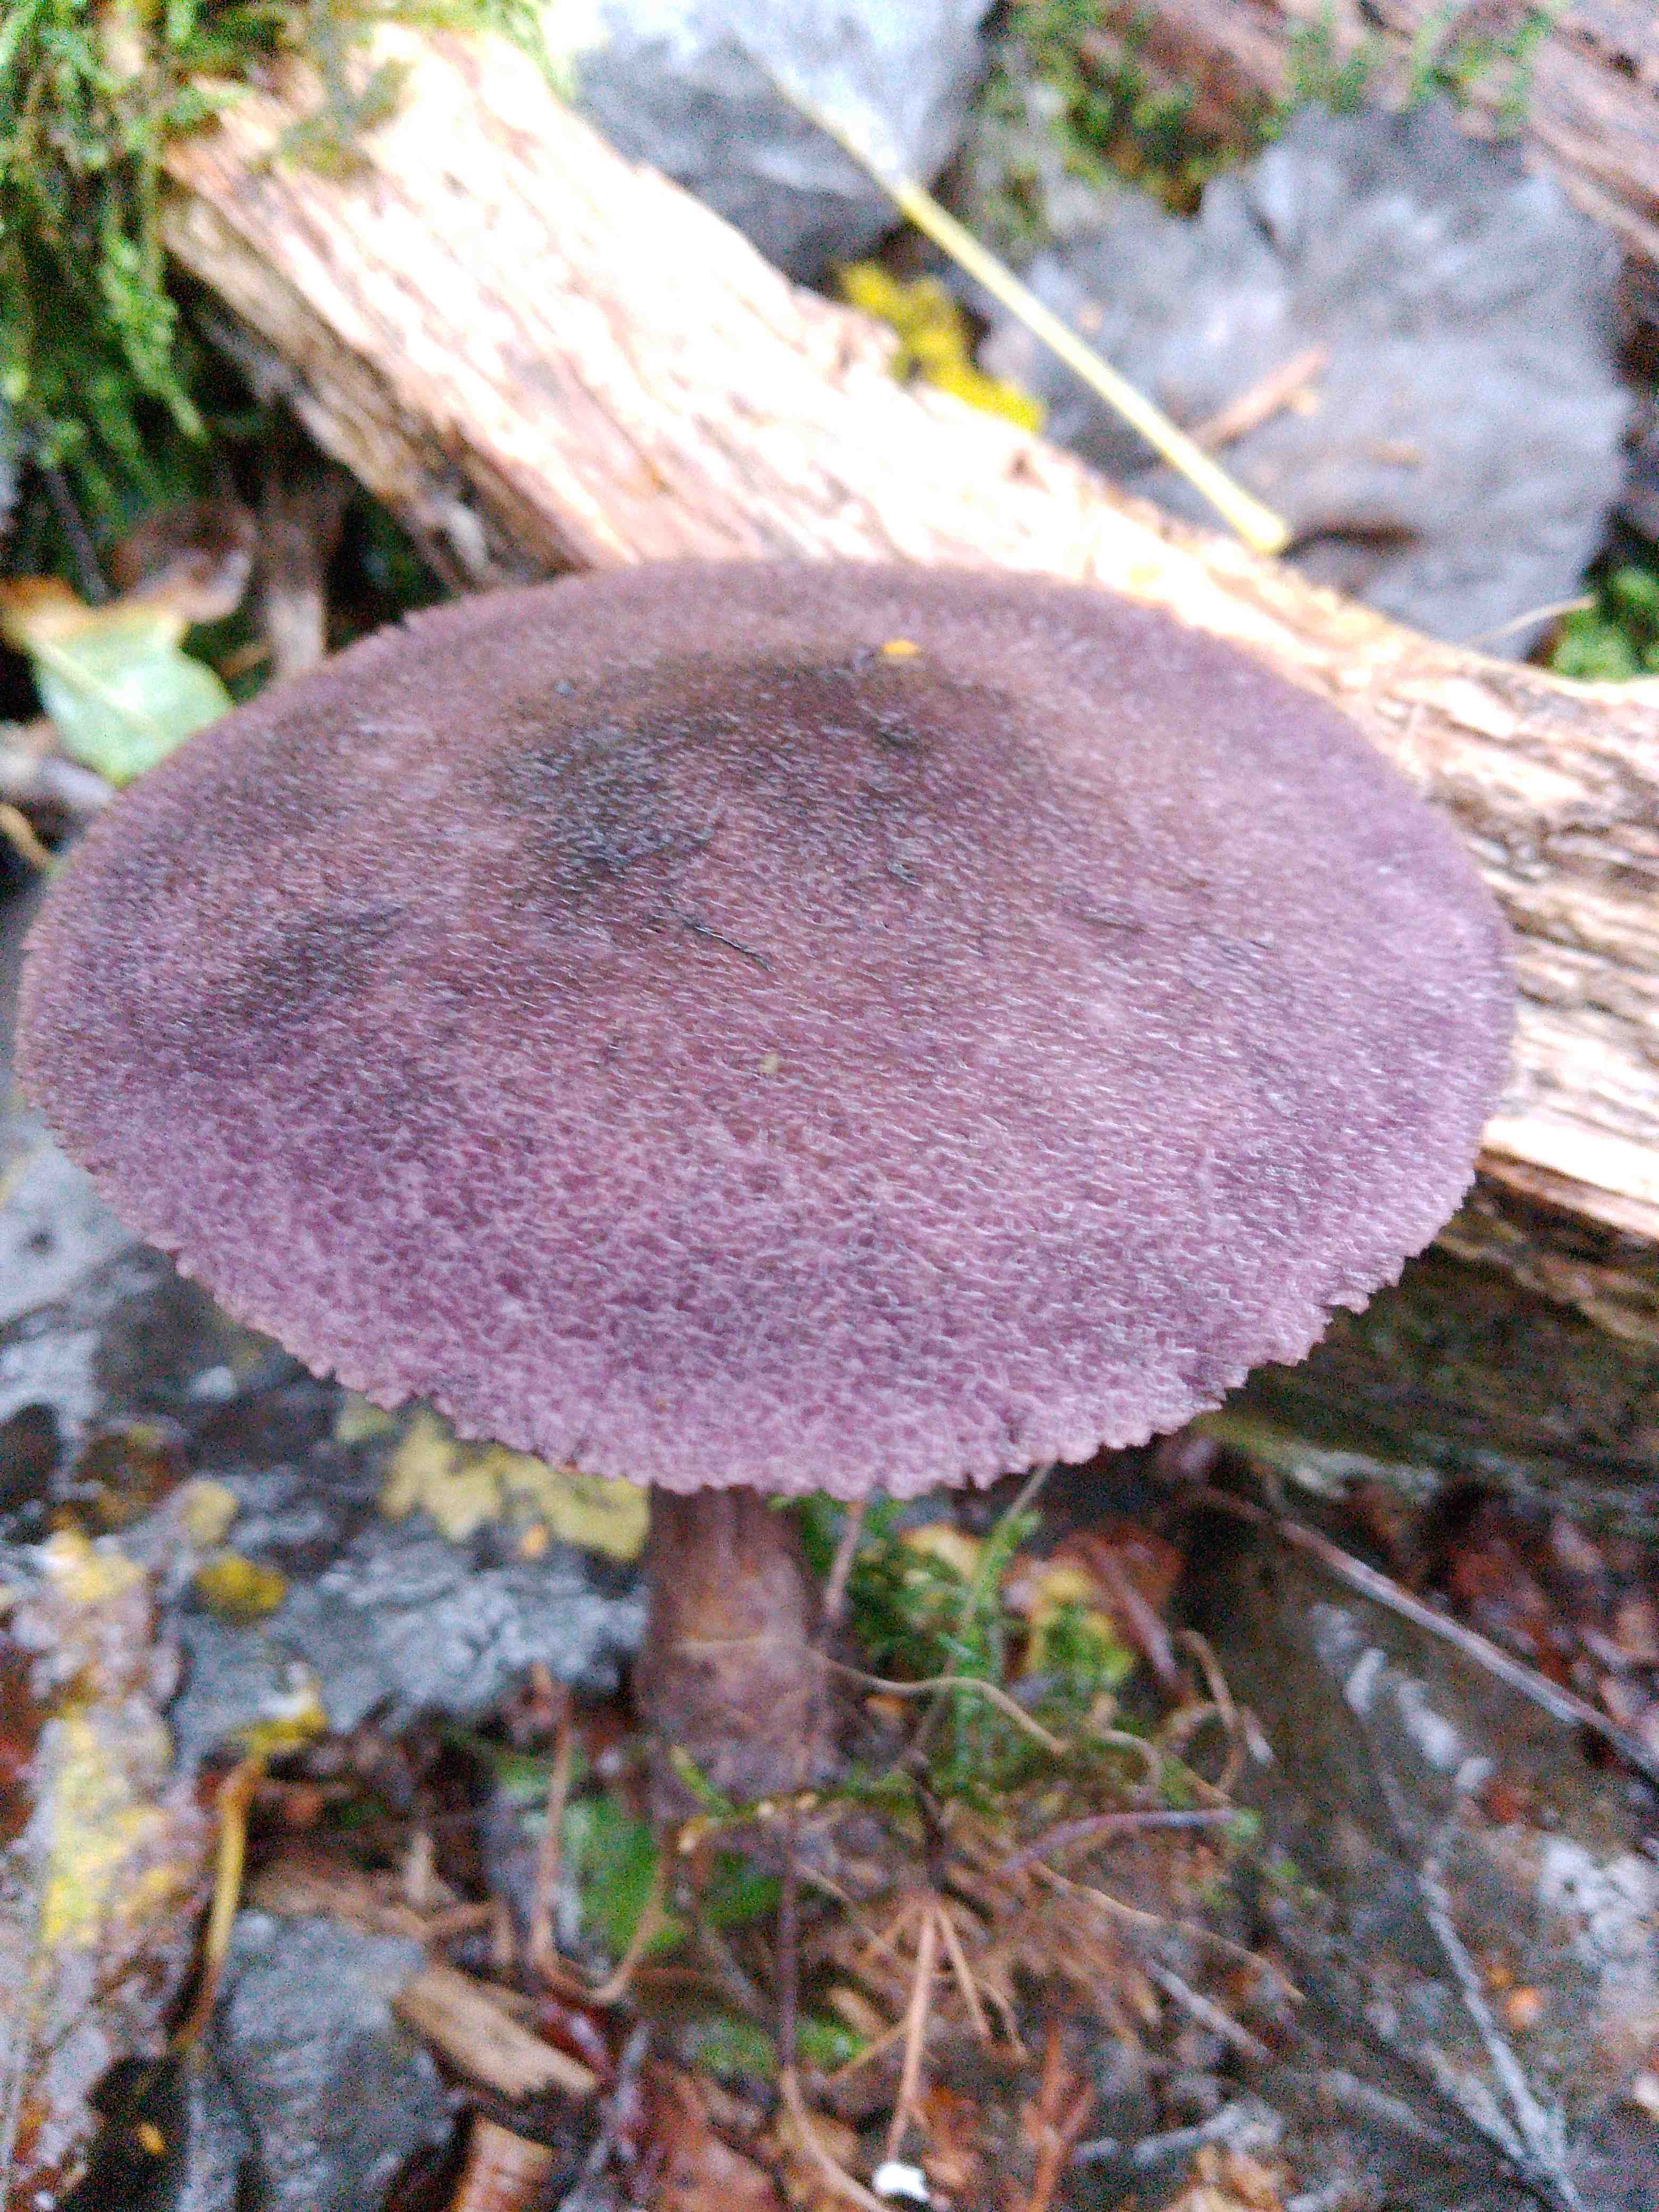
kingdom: Fungi
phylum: Basidiomycota
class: Agaricomycetes
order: Agaricales
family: Cortinariaceae
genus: Cortinarius
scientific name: Cortinarius violaceus
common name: mørkviolet slørhat
